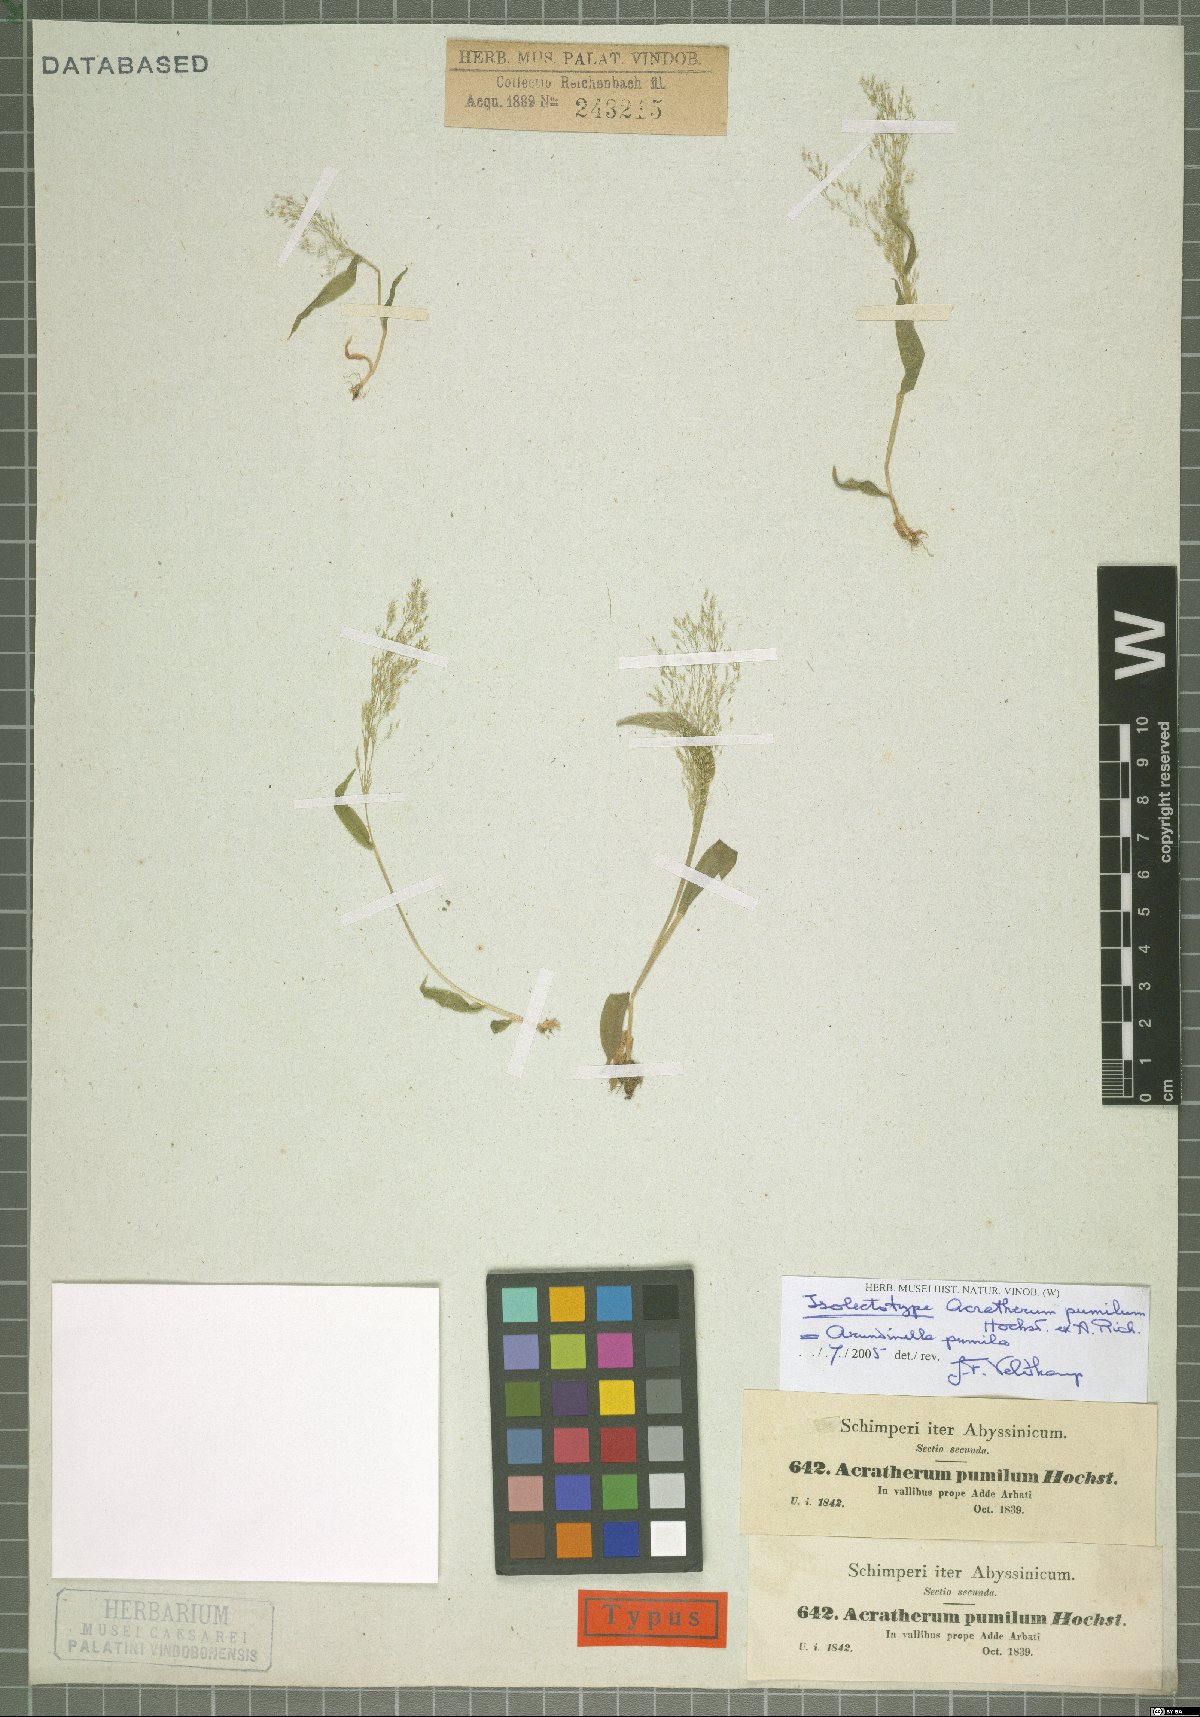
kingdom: Plantae
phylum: Tracheophyta
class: Liliopsida
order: Poales
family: Poaceae
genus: Arundinella
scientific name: Arundinella pumila
